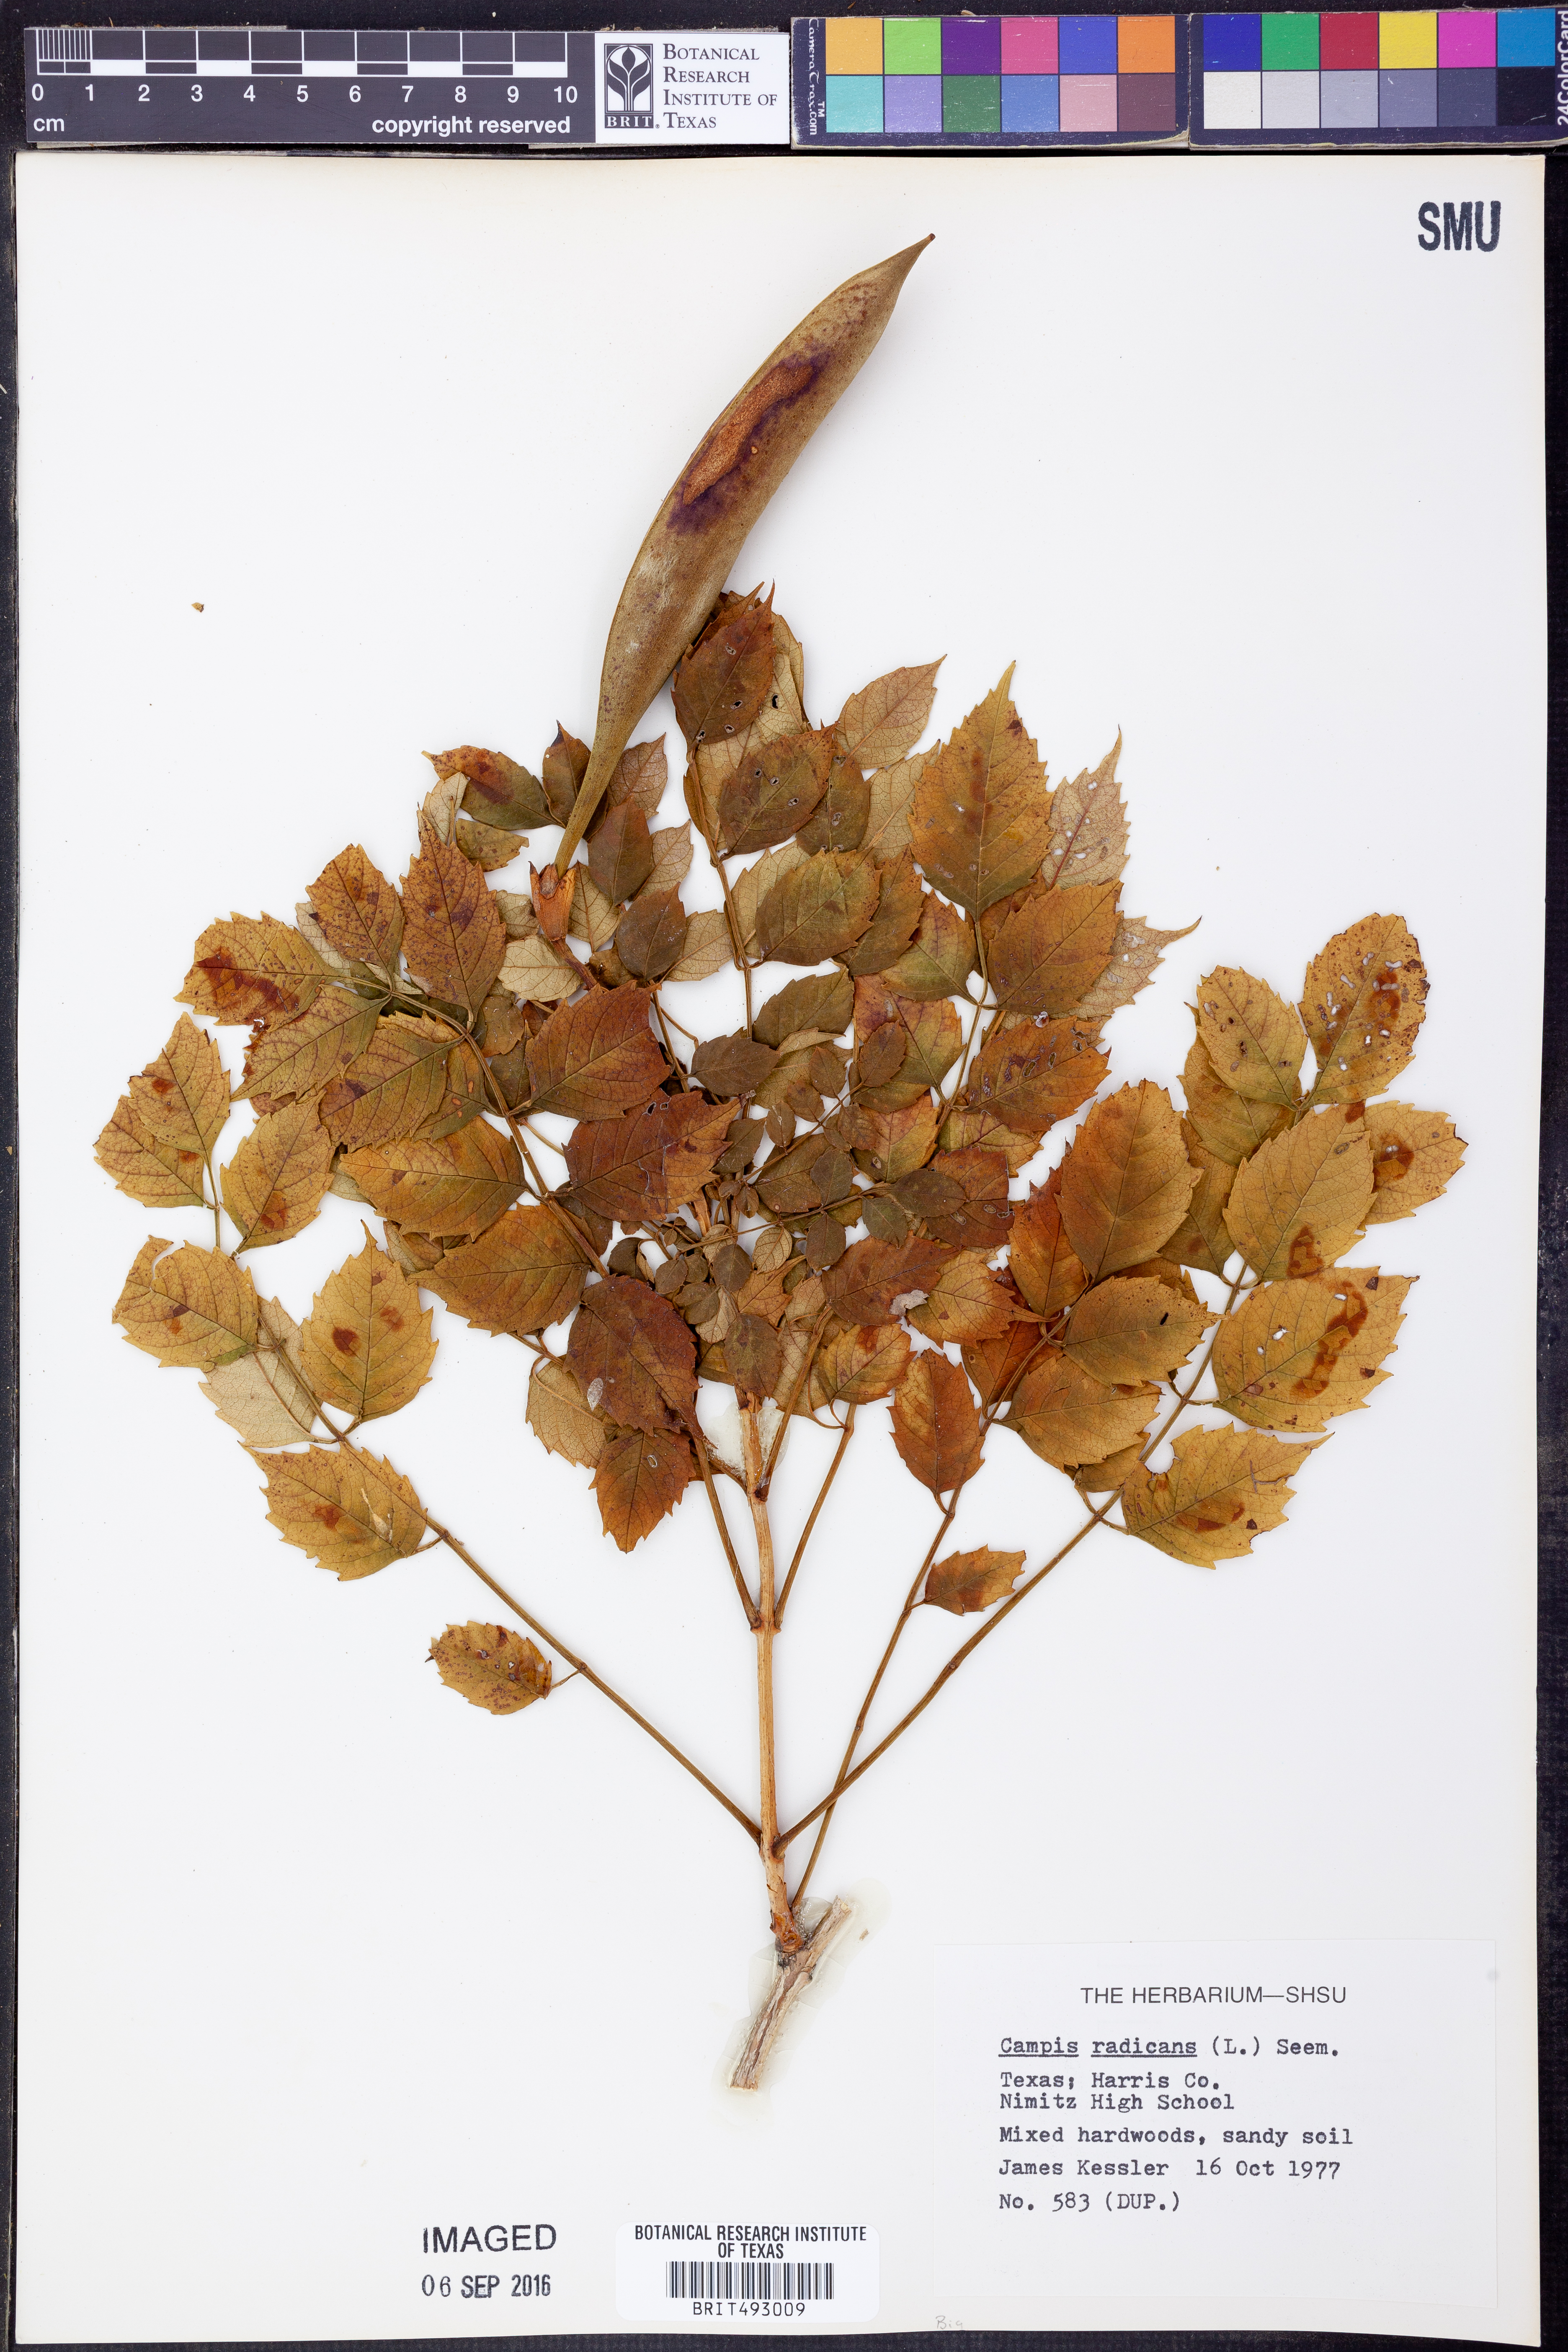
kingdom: Plantae
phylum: Tracheophyta
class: Magnoliopsida
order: Lamiales
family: Bignoniaceae
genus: Campsis
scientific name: Campsis radicans
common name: Trumpet-creeper
